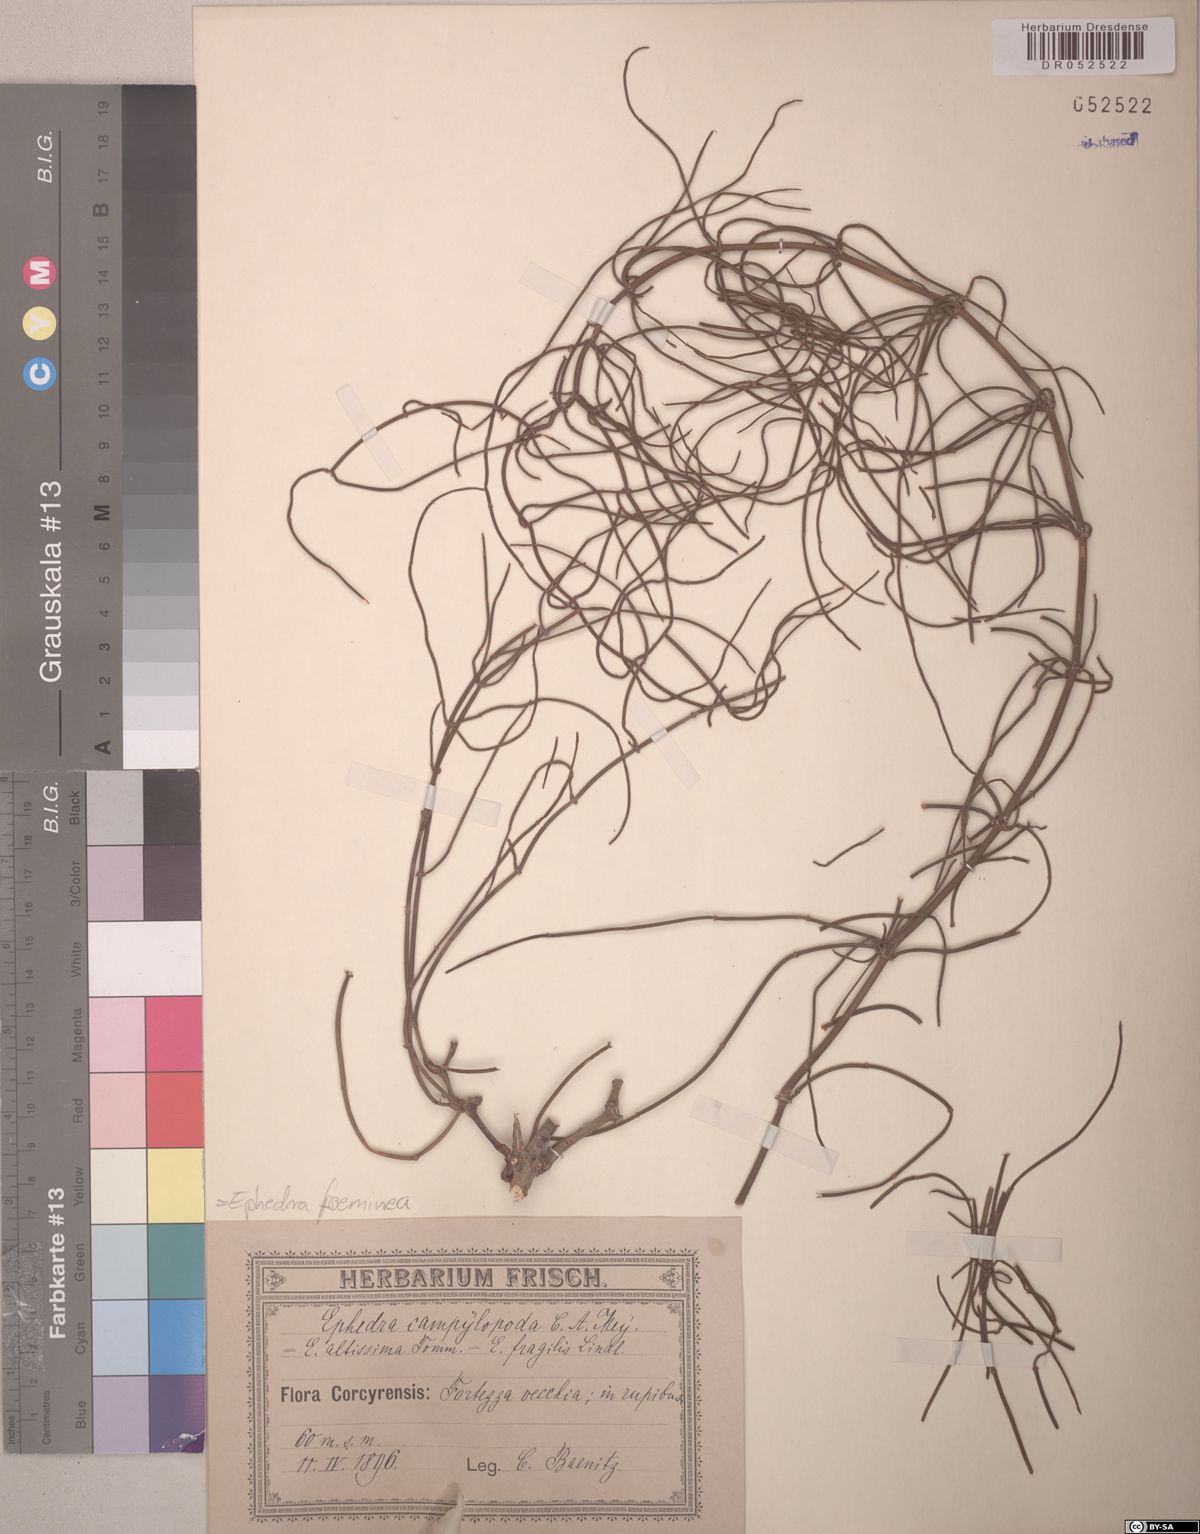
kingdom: Plantae
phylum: Tracheophyta
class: Gnetopsida
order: Ephedrales
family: Ephedraceae
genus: Ephedra
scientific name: Ephedra foeminea
